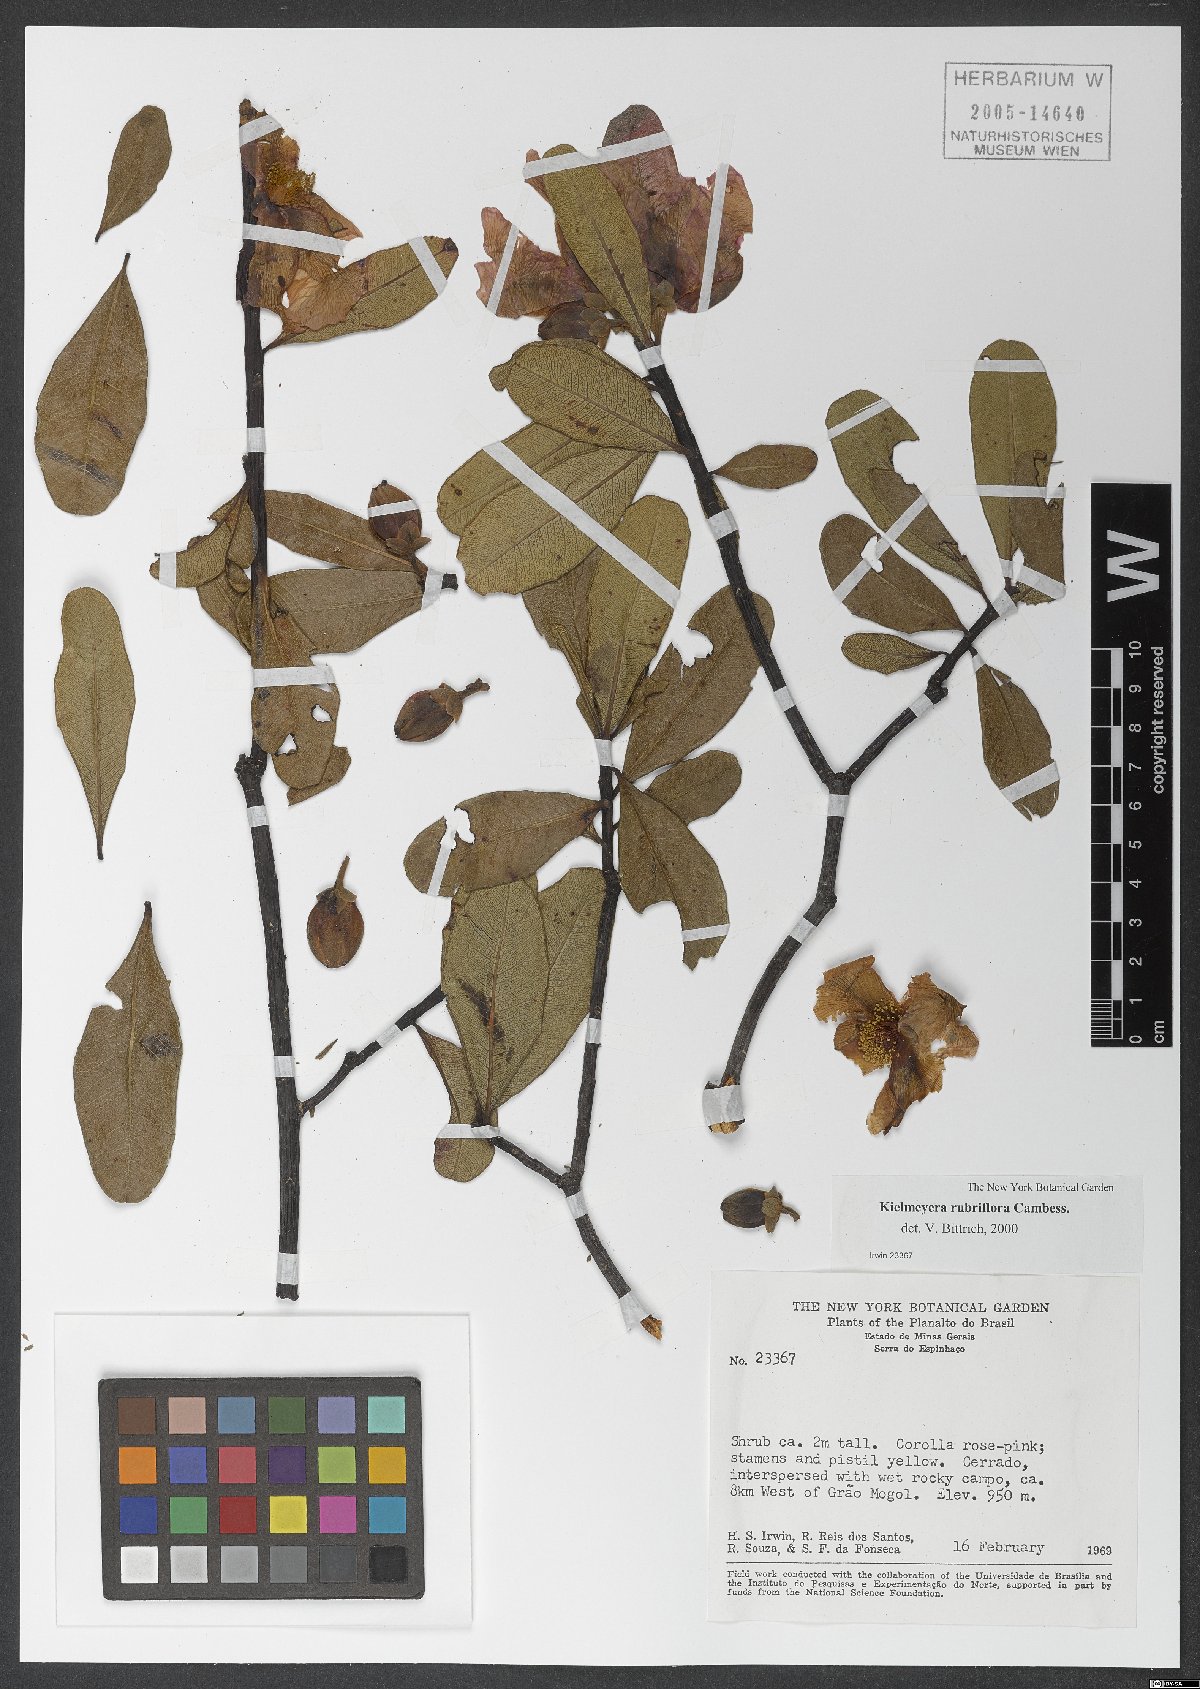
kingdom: Plantae
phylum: Tracheophyta
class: Magnoliopsida
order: Malpighiales
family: Calophyllaceae
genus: Kielmeyera
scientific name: Kielmeyera rubriflora
